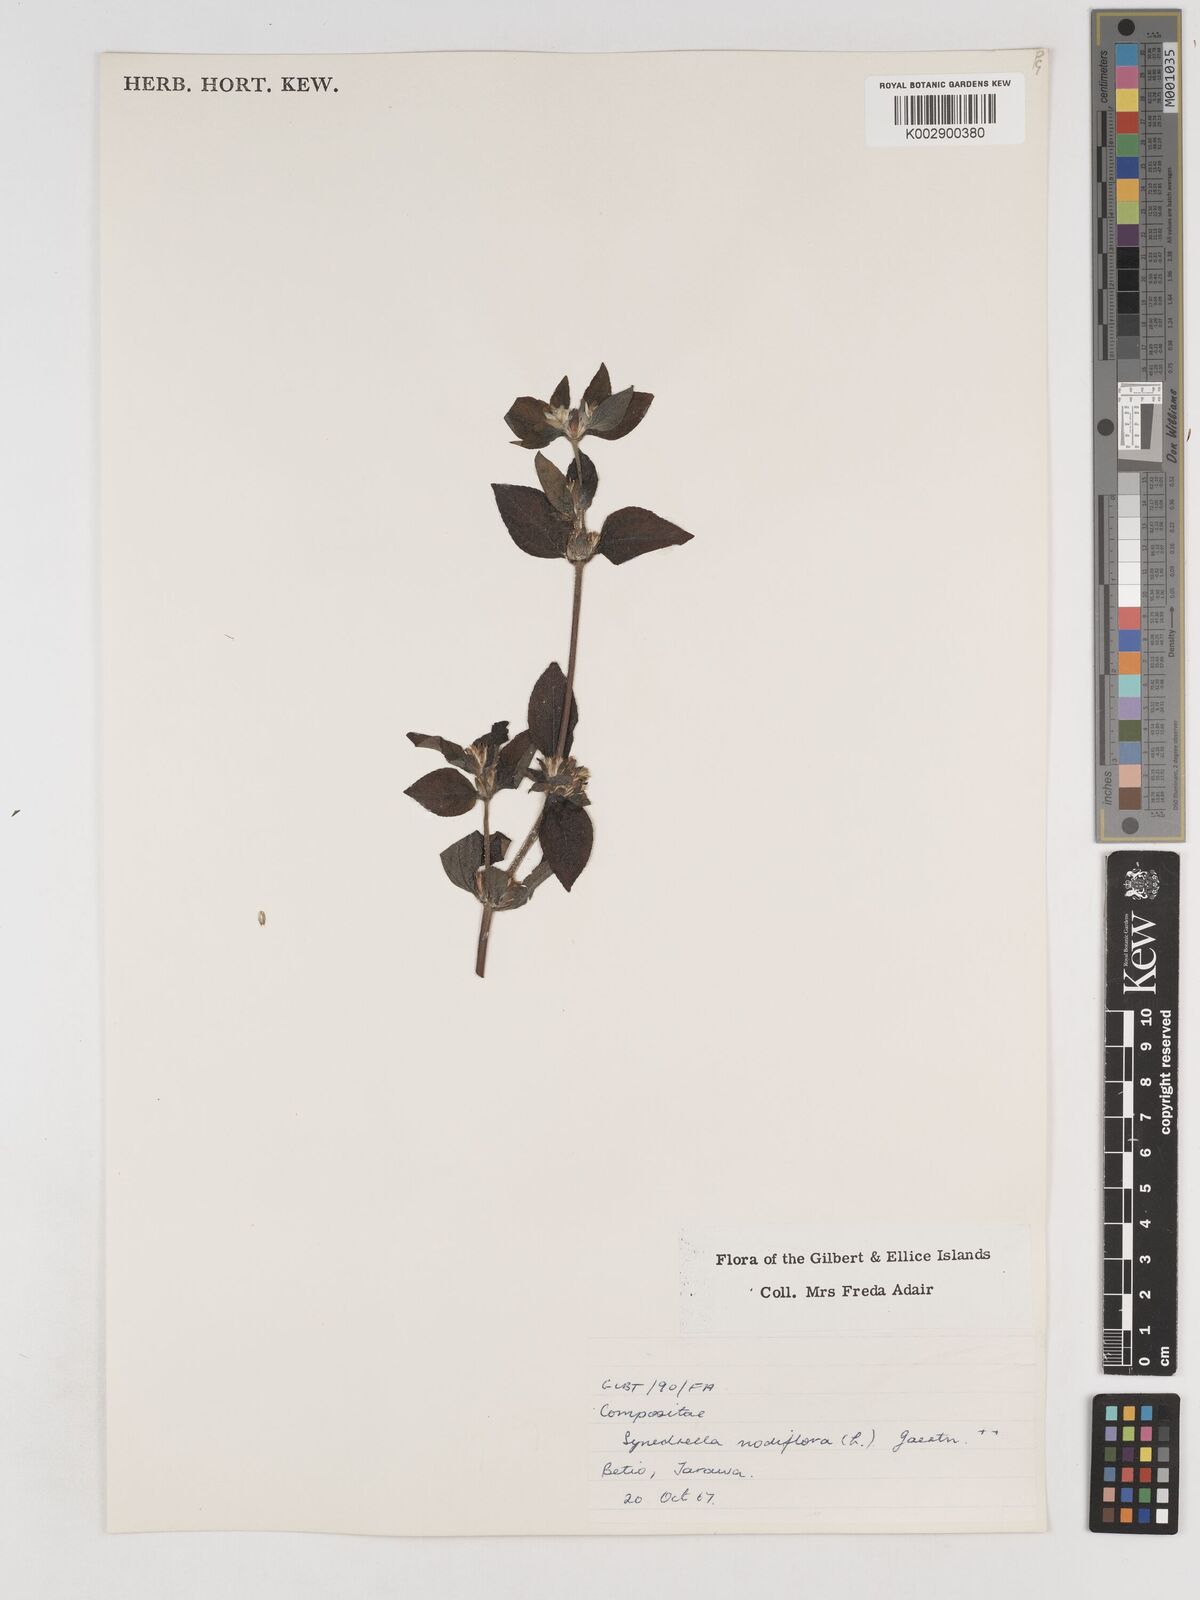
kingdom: Plantae
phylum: Tracheophyta
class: Magnoliopsida
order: Asterales
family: Asteraceae
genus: Synedrella
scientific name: Synedrella
